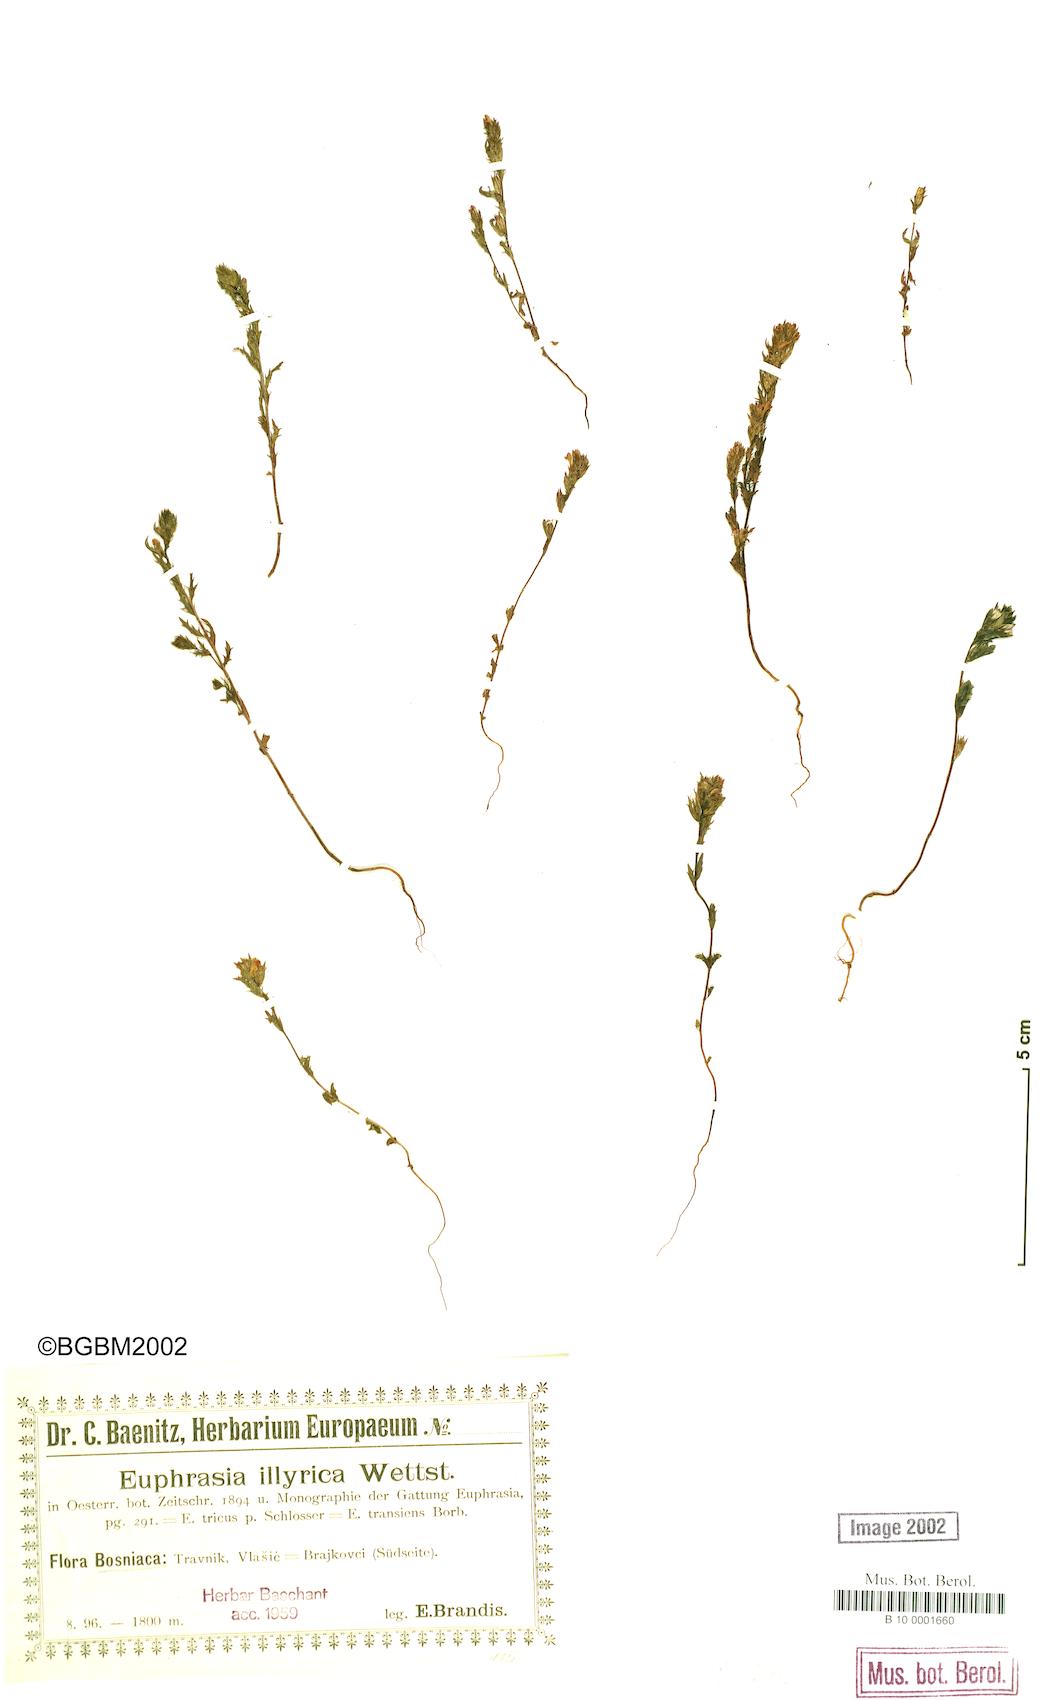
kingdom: Plantae
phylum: Tracheophyta
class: Magnoliopsida
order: Lamiales
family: Orobanchaceae
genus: Euphrasia
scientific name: Euphrasia illyrica
